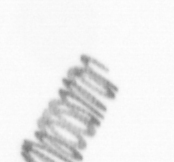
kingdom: Chromista
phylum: Ochrophyta
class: Bacillariophyceae
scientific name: Bacillariophyceae
